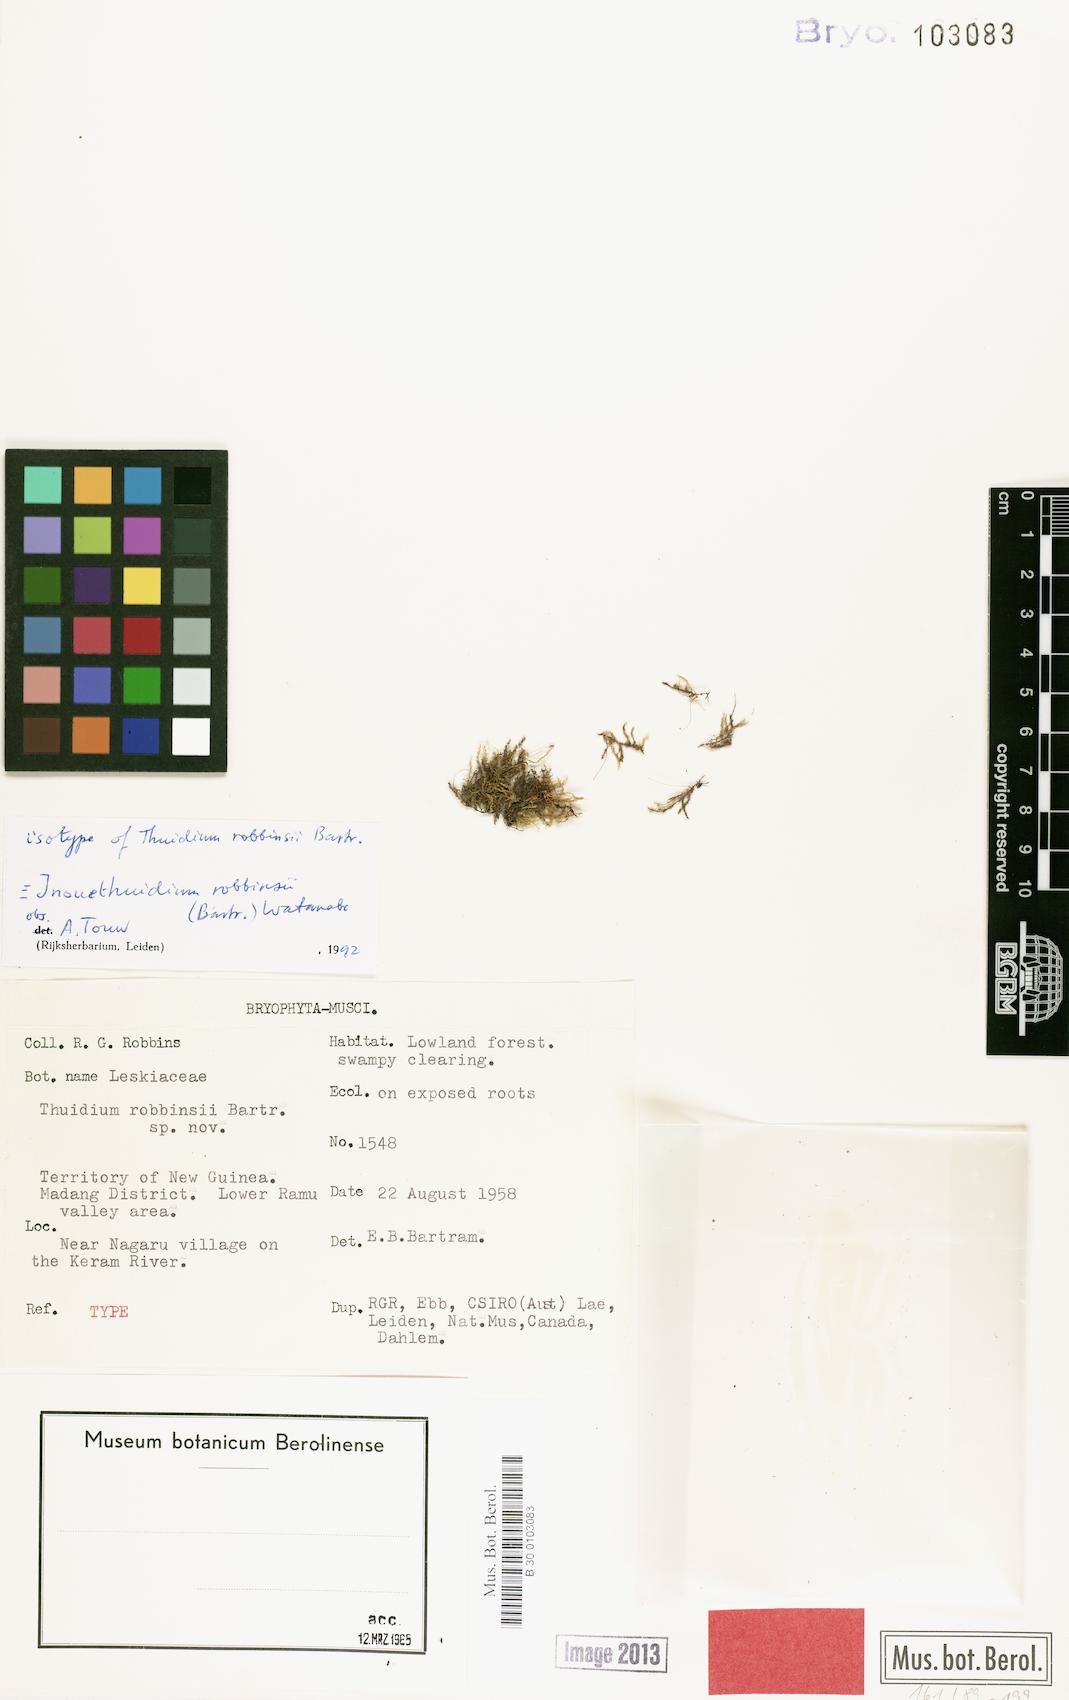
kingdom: Plantae
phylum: Bryophyta
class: Bryopsida
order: Hypnales
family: Thuidiaceae
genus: Inouethuidium
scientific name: Inouethuidium robbinsii
